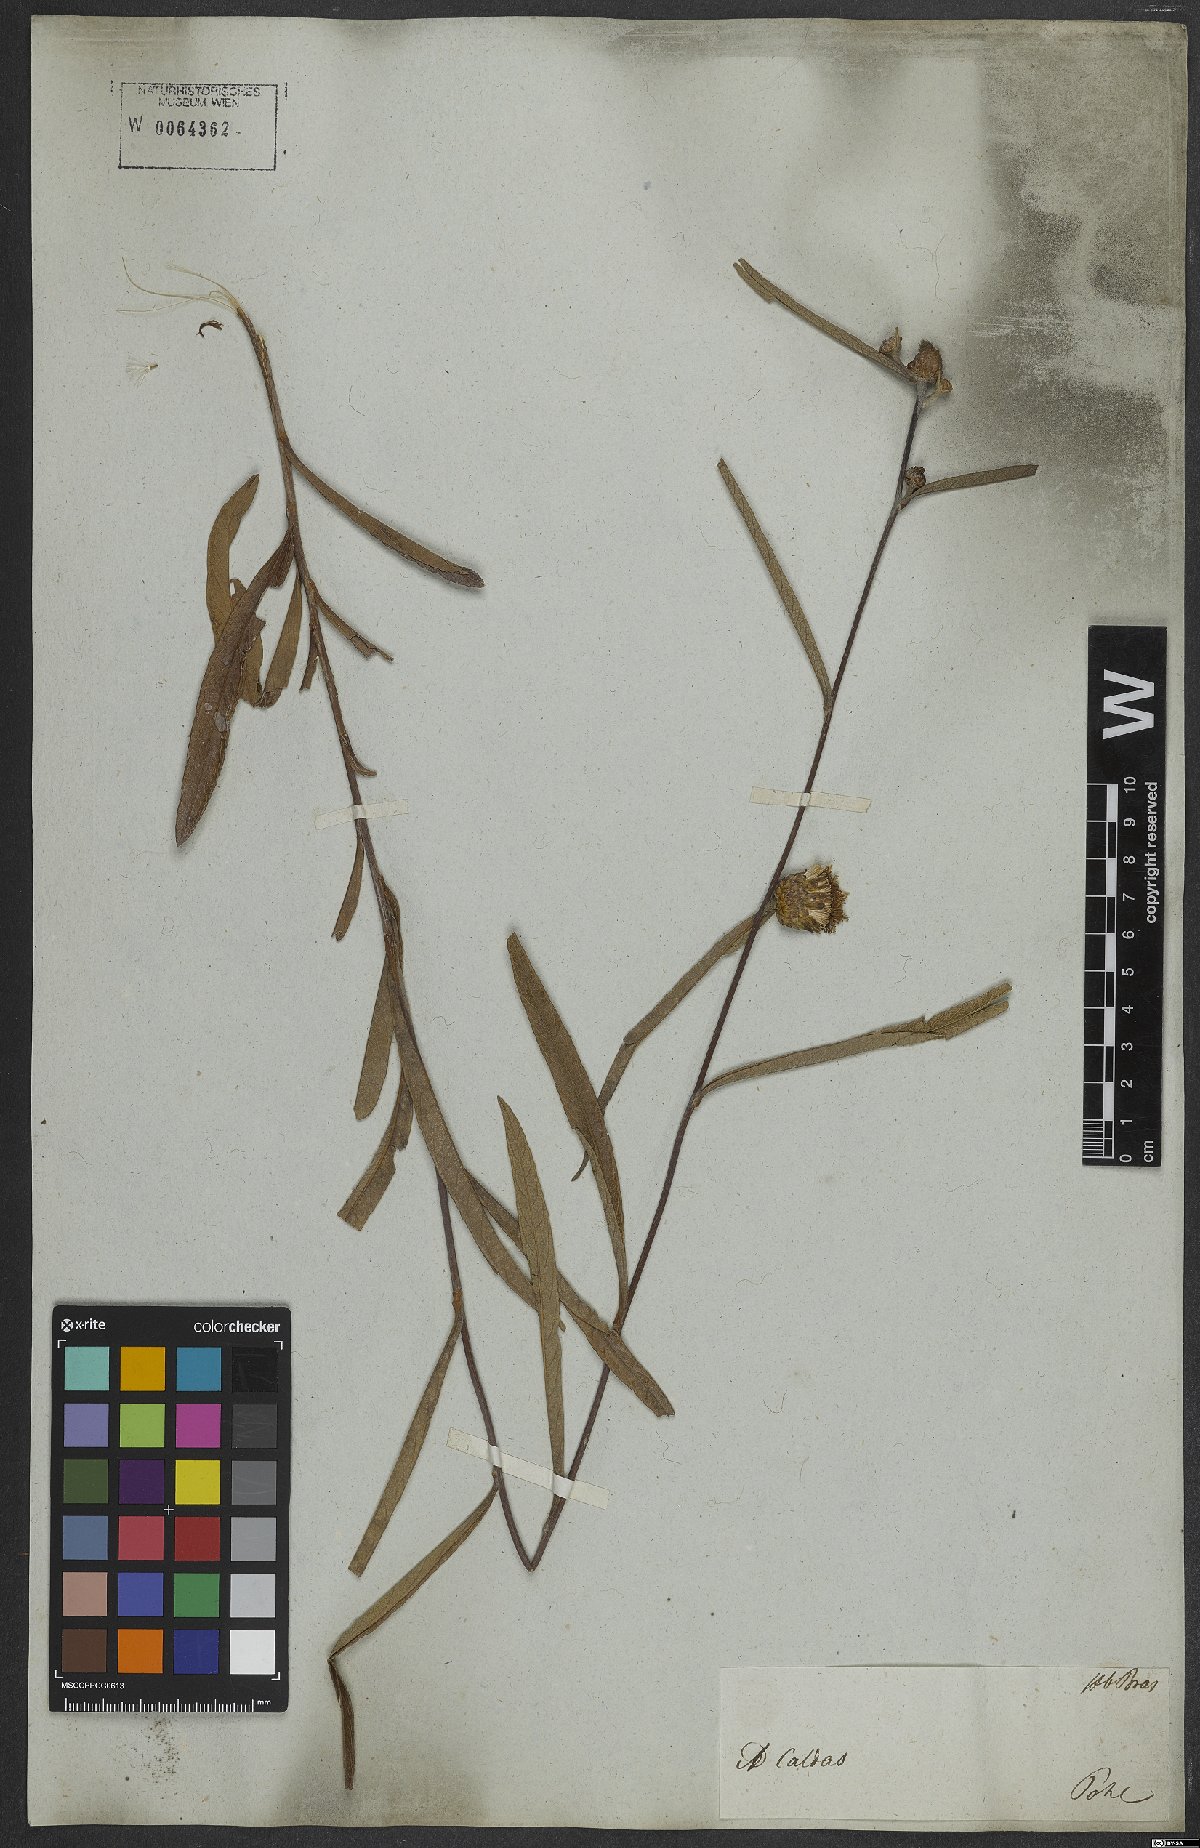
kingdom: Plantae
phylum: Tracheophyta
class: Magnoliopsida
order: Asterales
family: Asteraceae
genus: Lessingianthus
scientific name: Lessingianthus coriaceus
